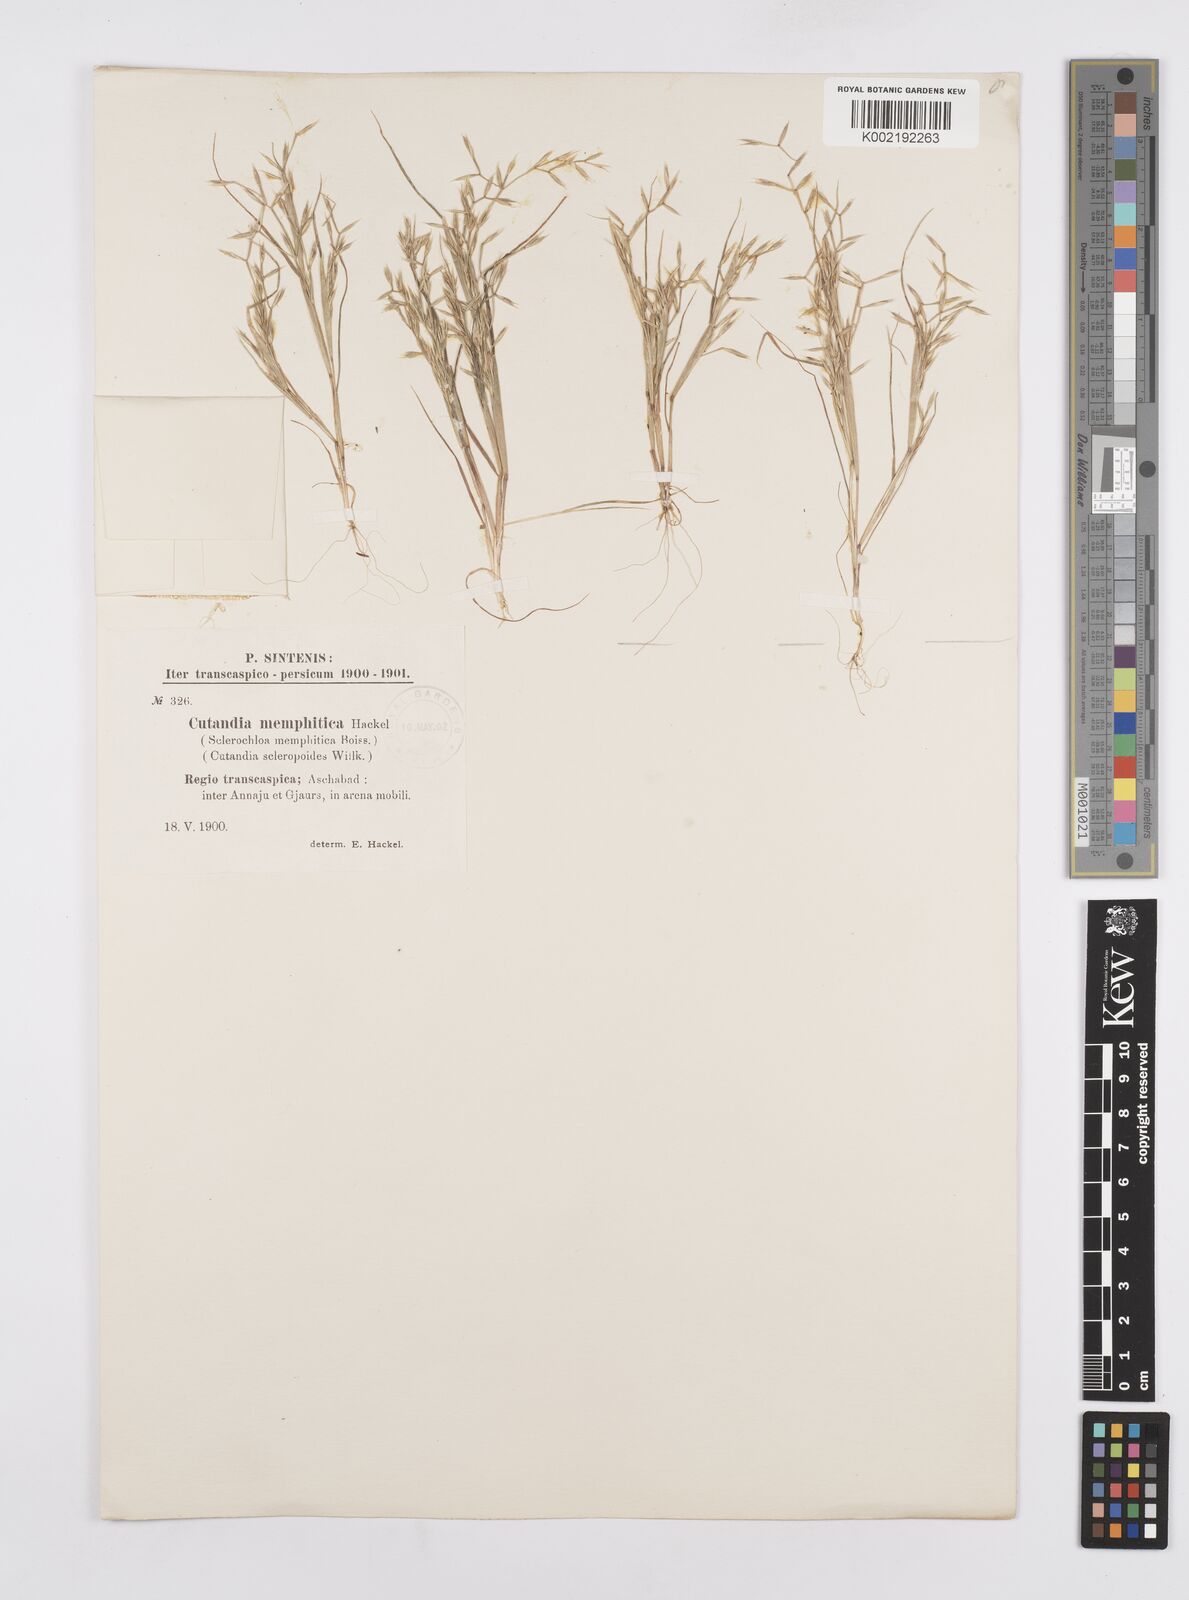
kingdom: Plantae
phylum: Tracheophyta
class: Liliopsida
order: Poales
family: Poaceae
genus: Cutandia
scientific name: Cutandia memphitica
